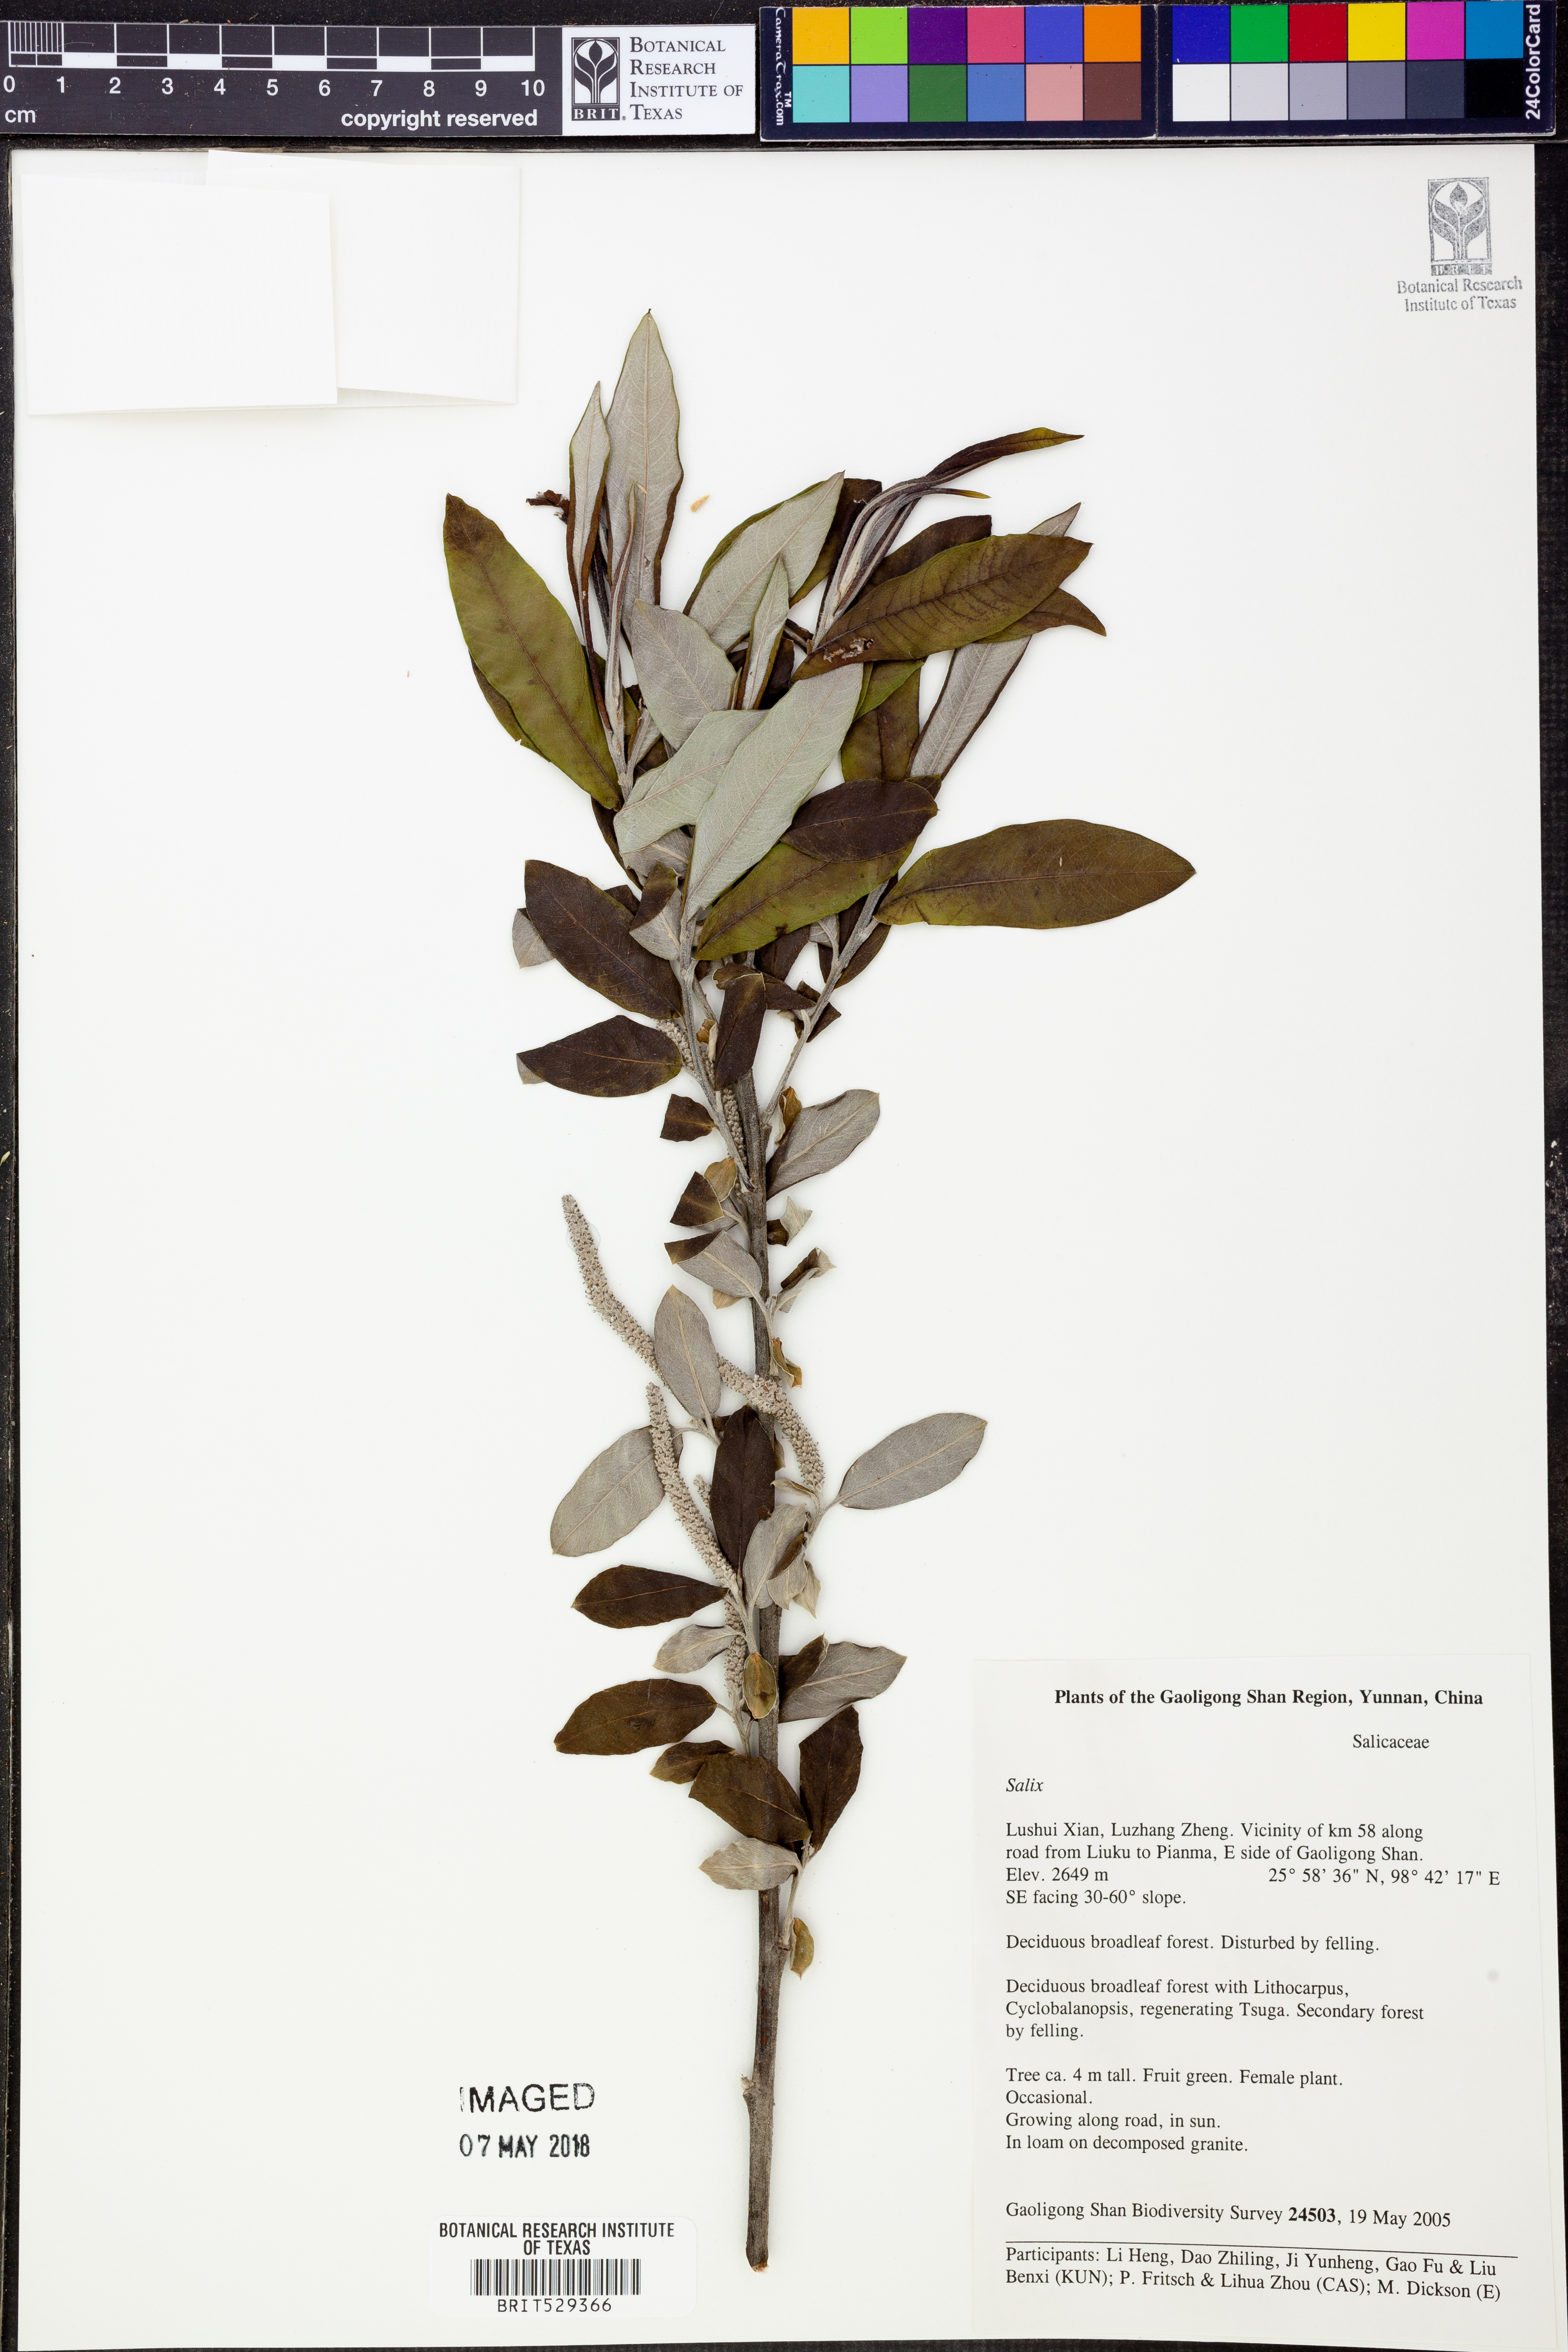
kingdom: Plantae
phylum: Tracheophyta
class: Magnoliopsida
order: Malpighiales
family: Salicaceae
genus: Salix
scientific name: Salix
